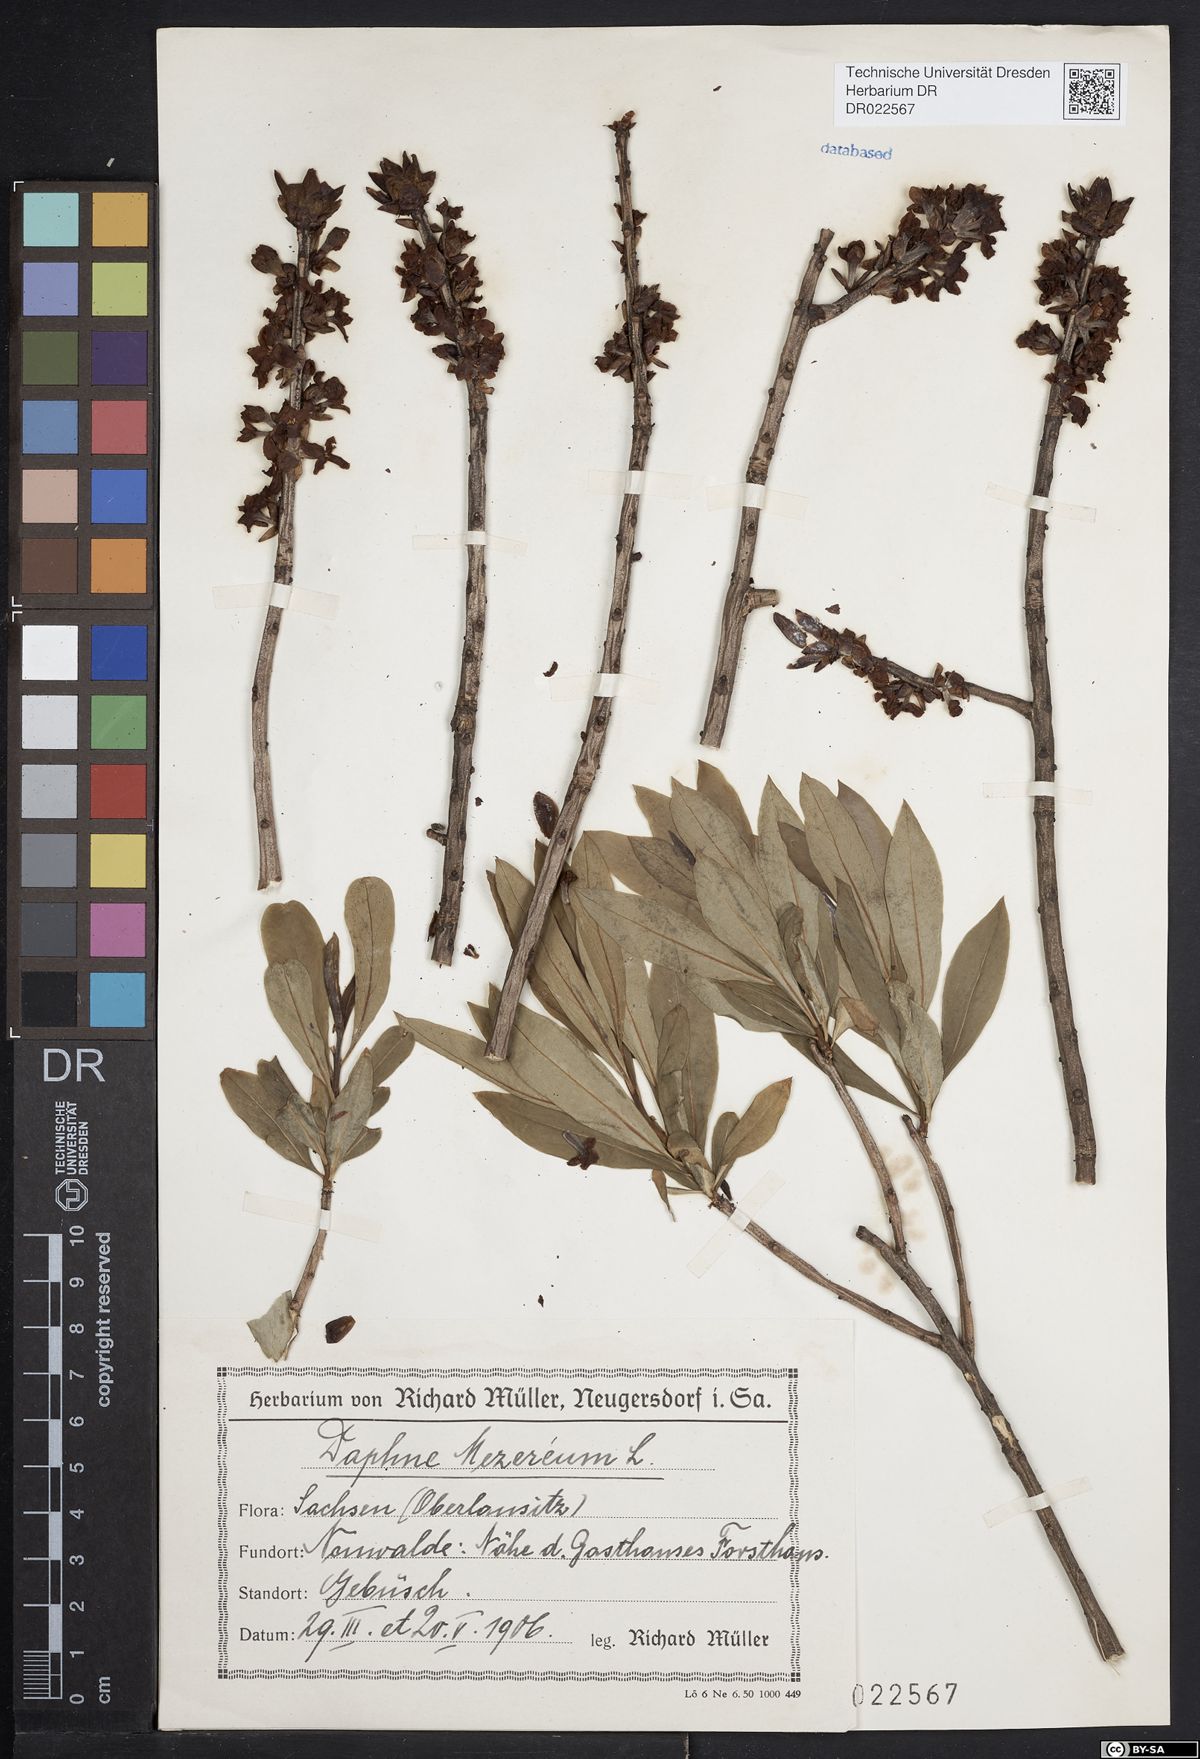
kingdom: Plantae
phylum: Tracheophyta
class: Magnoliopsida
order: Malvales
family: Thymelaeaceae
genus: Daphne
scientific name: Daphne mezereum
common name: Mezereon
